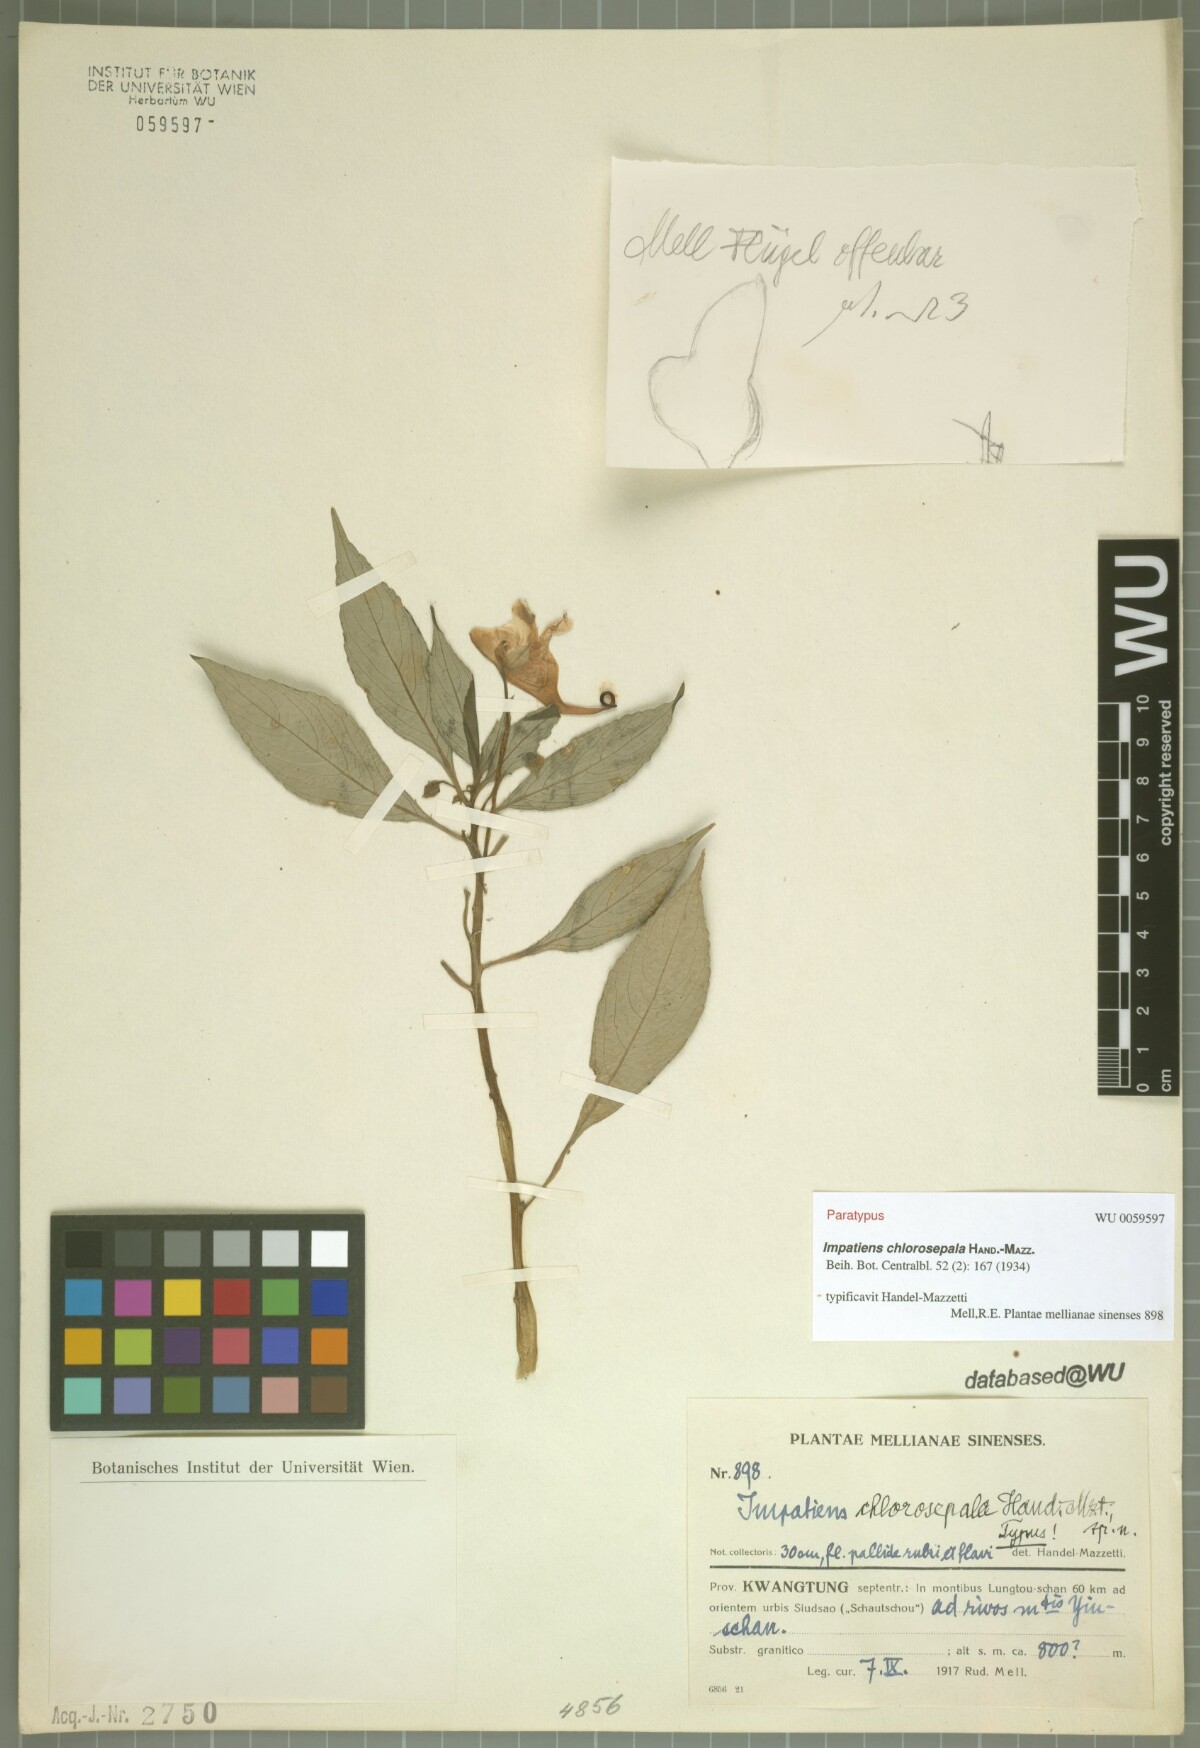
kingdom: Plantae
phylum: Tracheophyta
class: Magnoliopsida
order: Ericales
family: Balsaminaceae
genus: Impatiens
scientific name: Impatiens chlorosepala
